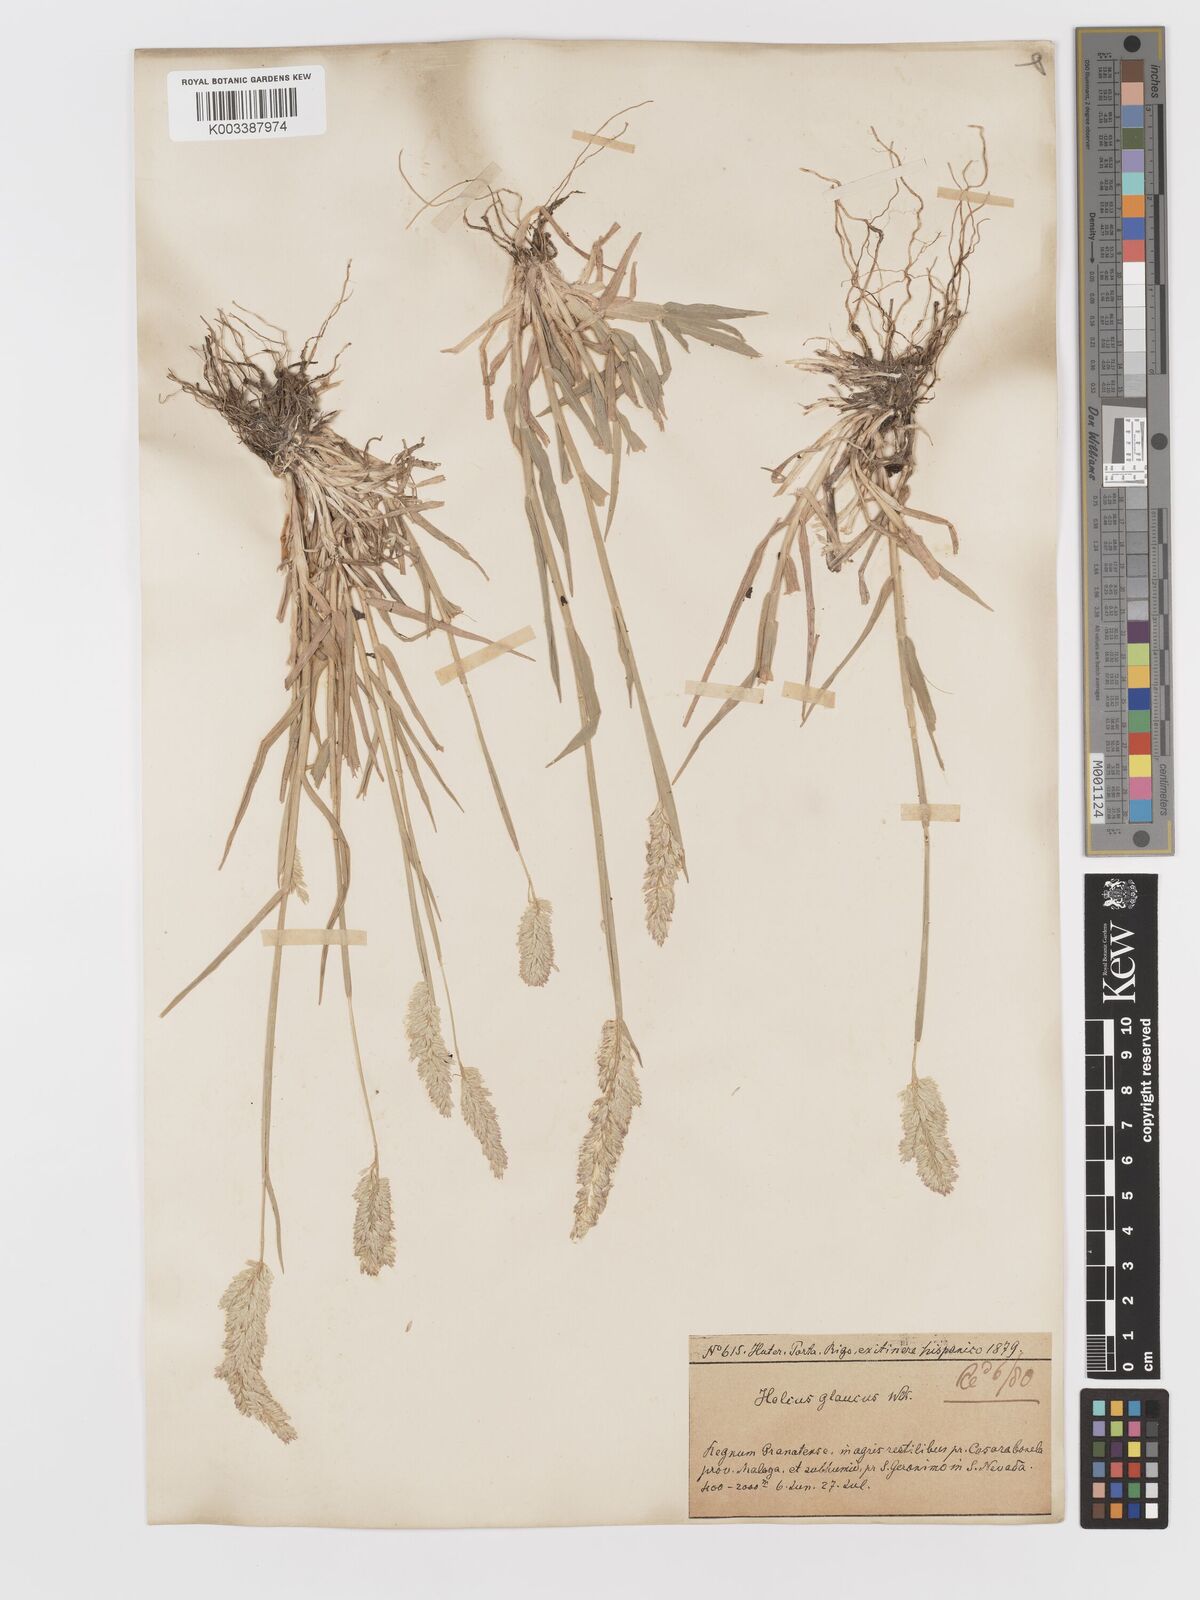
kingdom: Plantae
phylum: Tracheophyta
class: Liliopsida
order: Poales
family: Poaceae
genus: Holcus
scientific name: Holcus lanatus
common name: Yorkshire-fog
